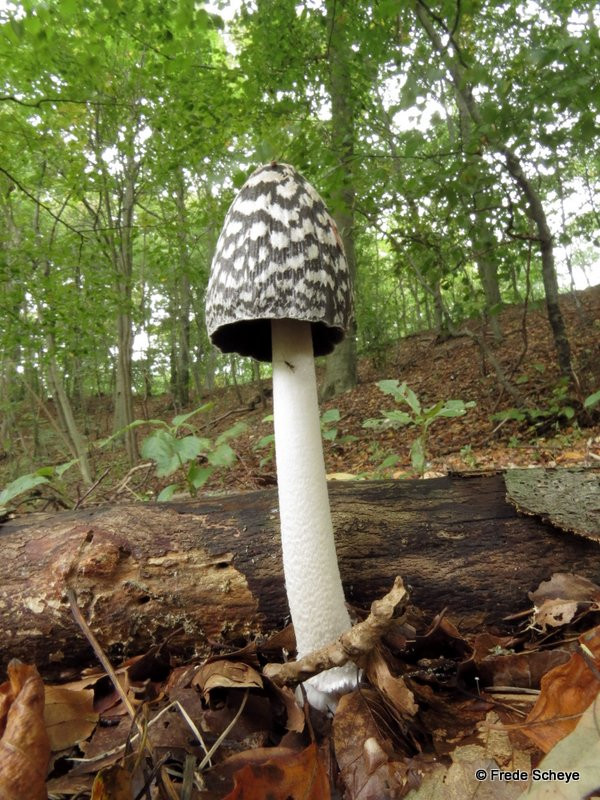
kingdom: Fungi
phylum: Basidiomycota
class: Agaricomycetes
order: Agaricales
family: Psathyrellaceae
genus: Coprinopsis
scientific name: Coprinopsis picacea
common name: skade-blækhat
